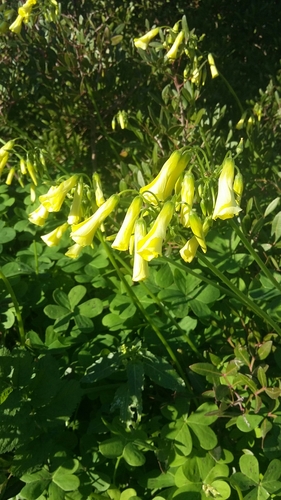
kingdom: Plantae
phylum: Tracheophyta
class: Magnoliopsida
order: Oxalidales
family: Oxalidaceae
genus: Oxalis
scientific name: Oxalis pes-caprae
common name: Bermuda-buttercup
